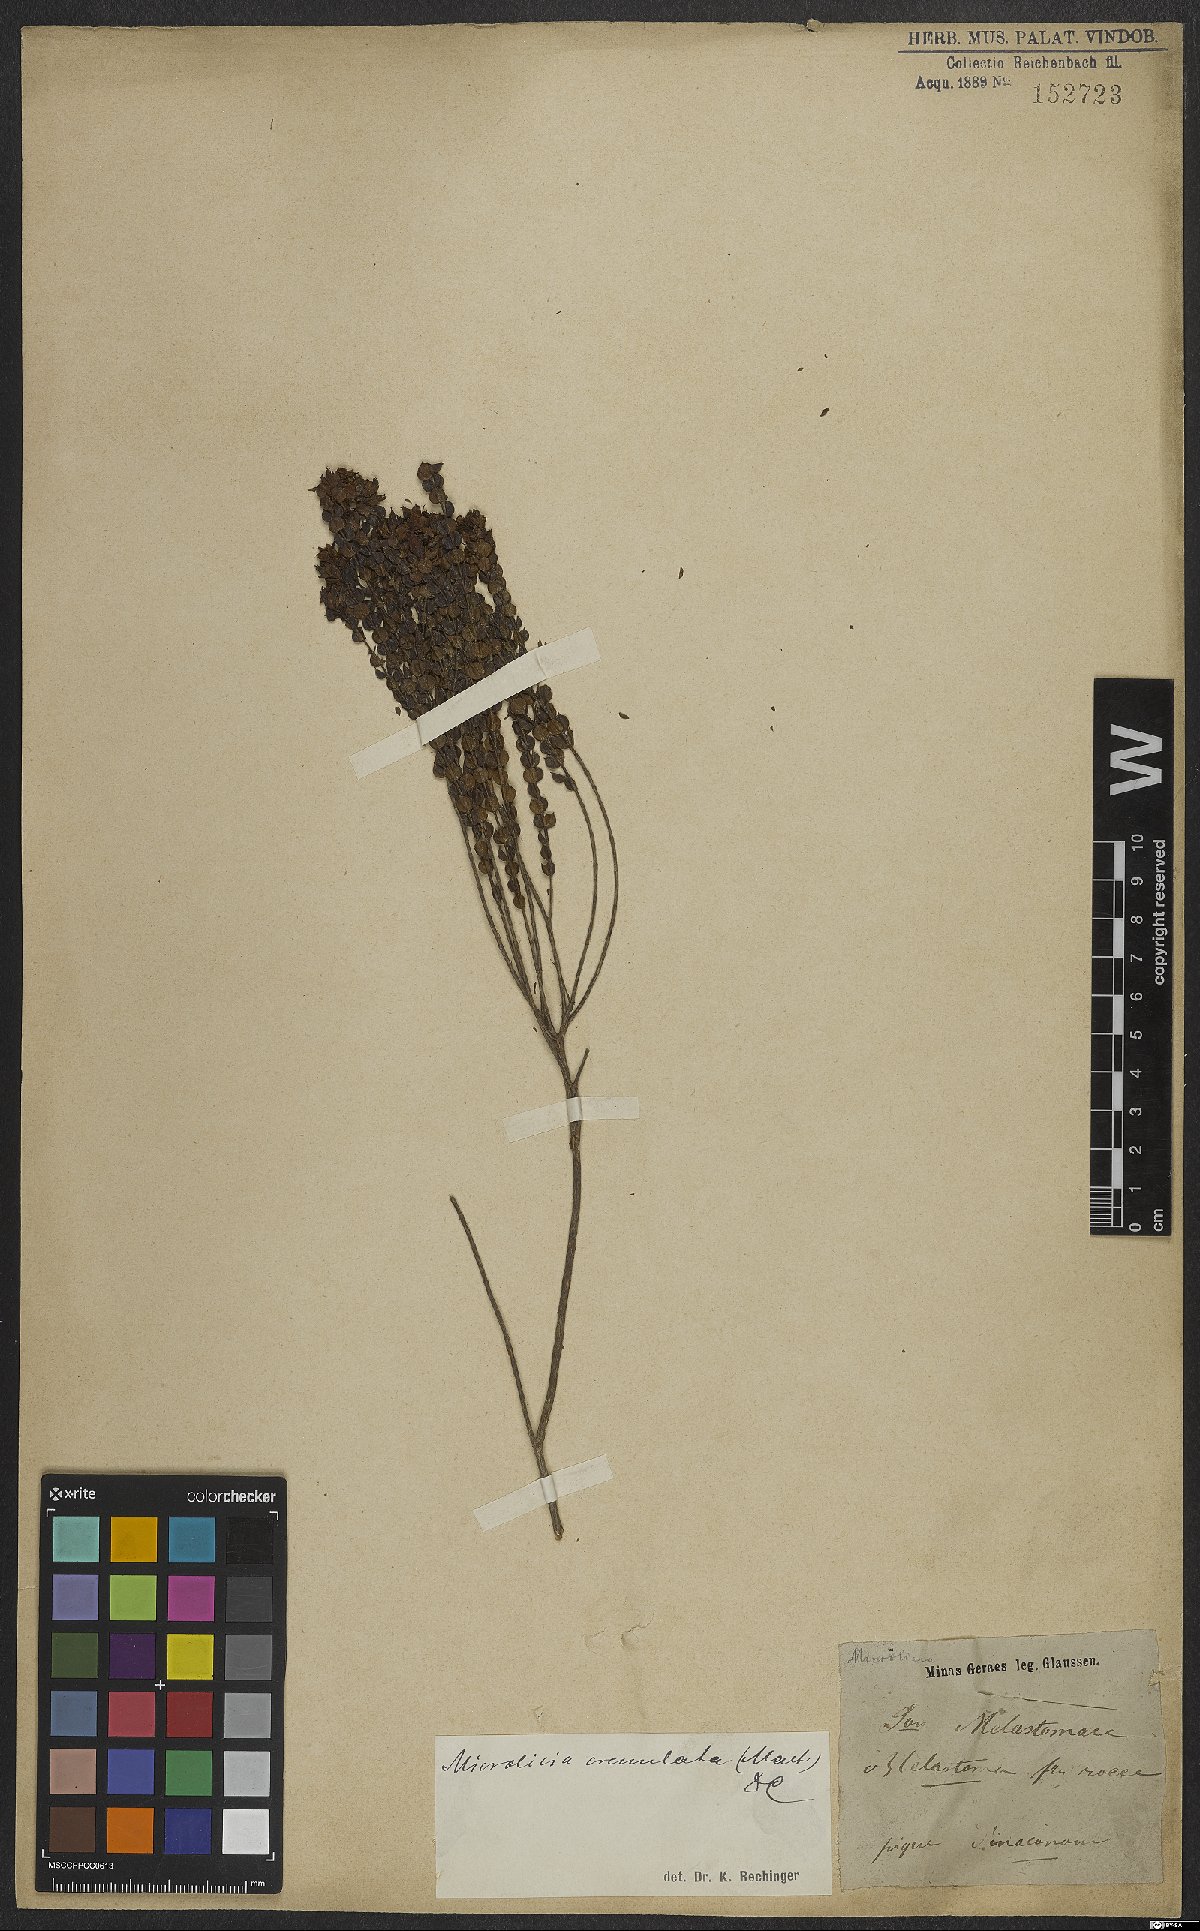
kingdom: Plantae
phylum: Tracheophyta
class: Magnoliopsida
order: Myrtales
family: Melastomataceae
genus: Microlicia
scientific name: Microlicia crenulata
